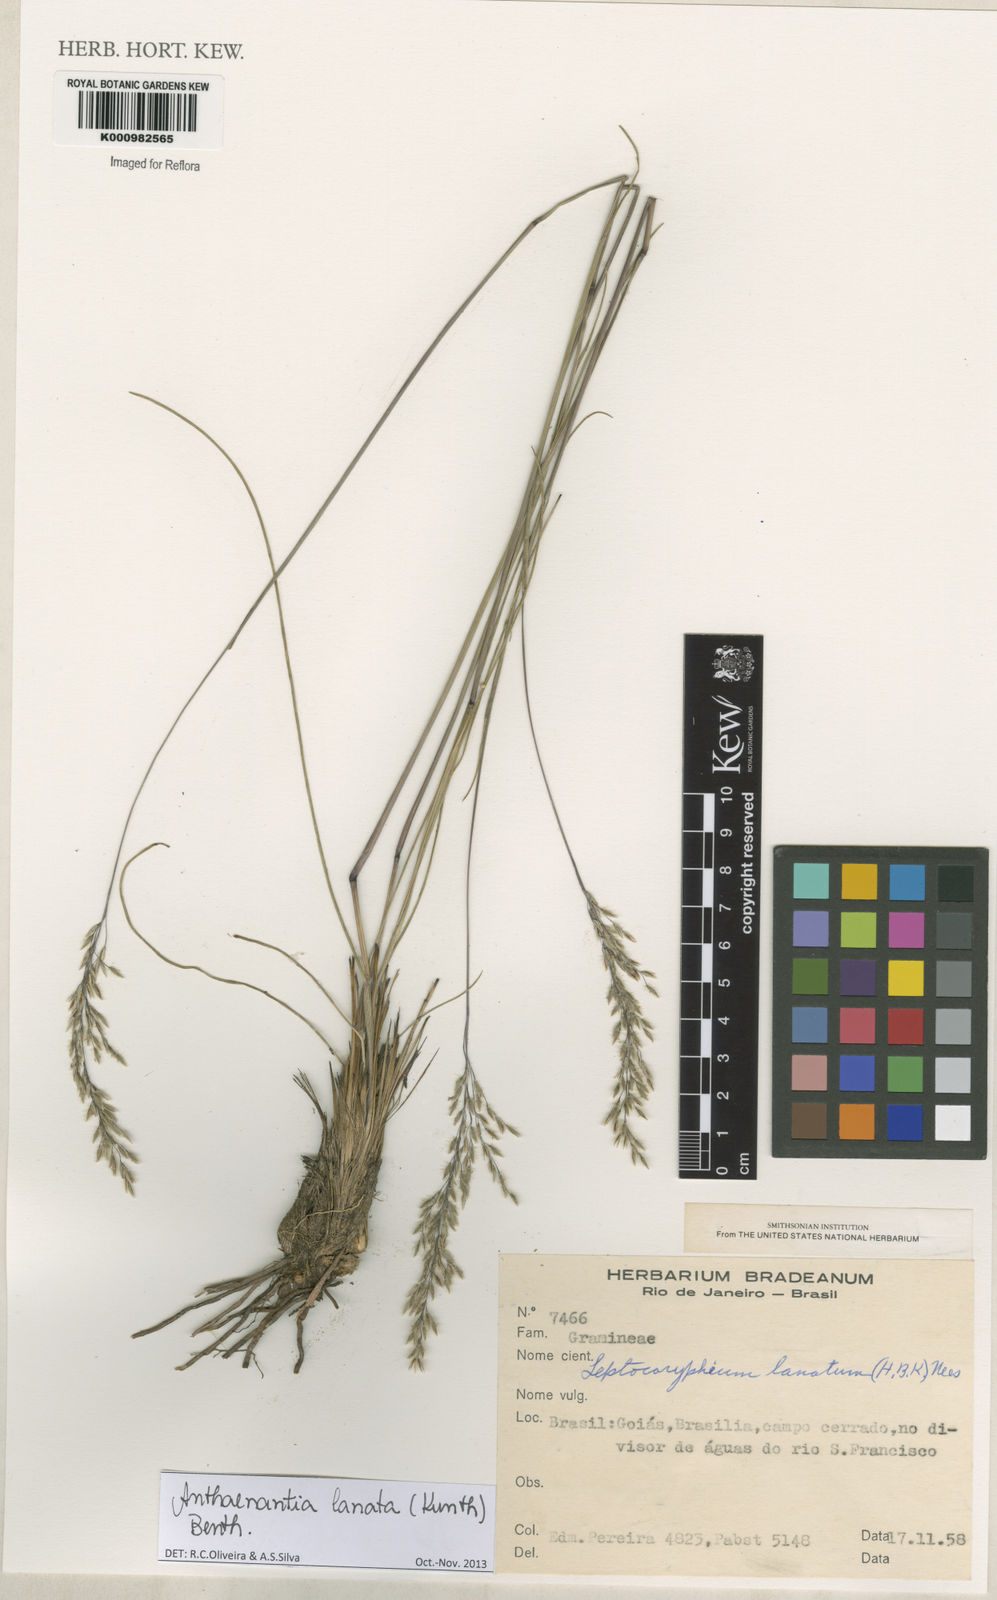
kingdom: Plantae
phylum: Tracheophyta
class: Liliopsida
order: Poales
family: Poaceae
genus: Anthenantia
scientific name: Anthenantia lanata
